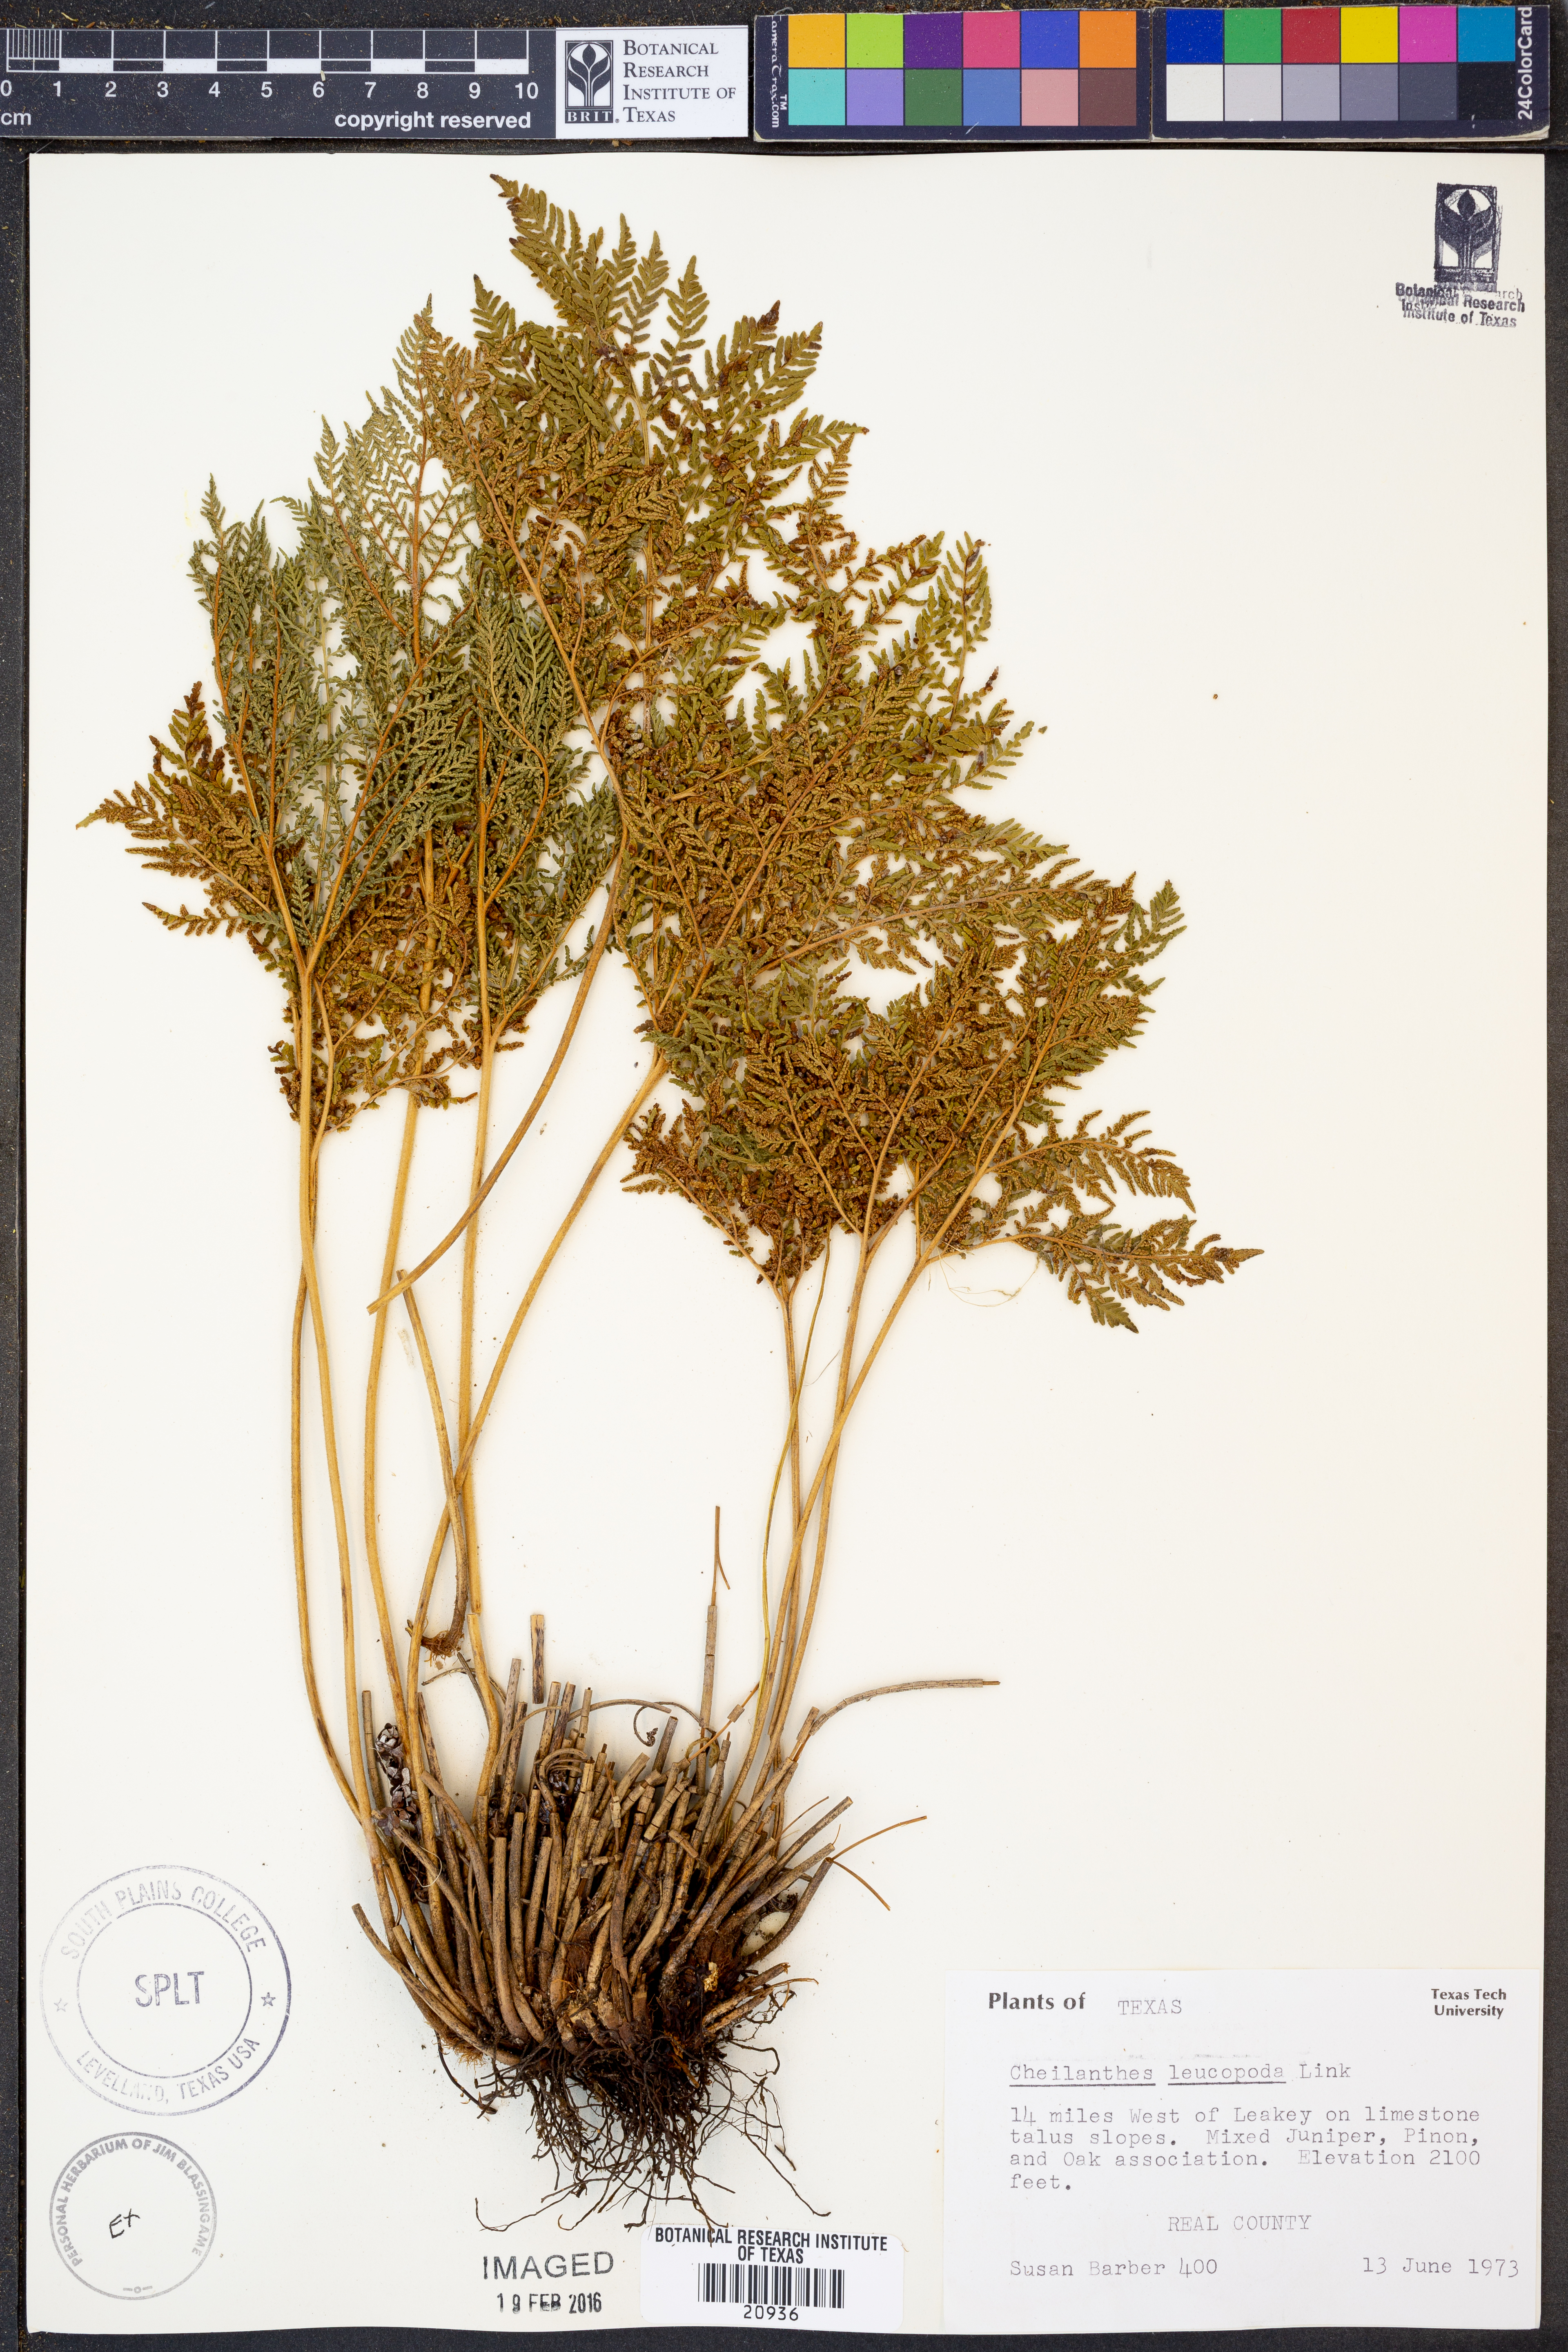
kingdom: Plantae
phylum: Tracheophyta
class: Polypodiopsida
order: Polypodiales
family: Pteridaceae
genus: Cheilanthes
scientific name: Cheilanthes leucopoda
